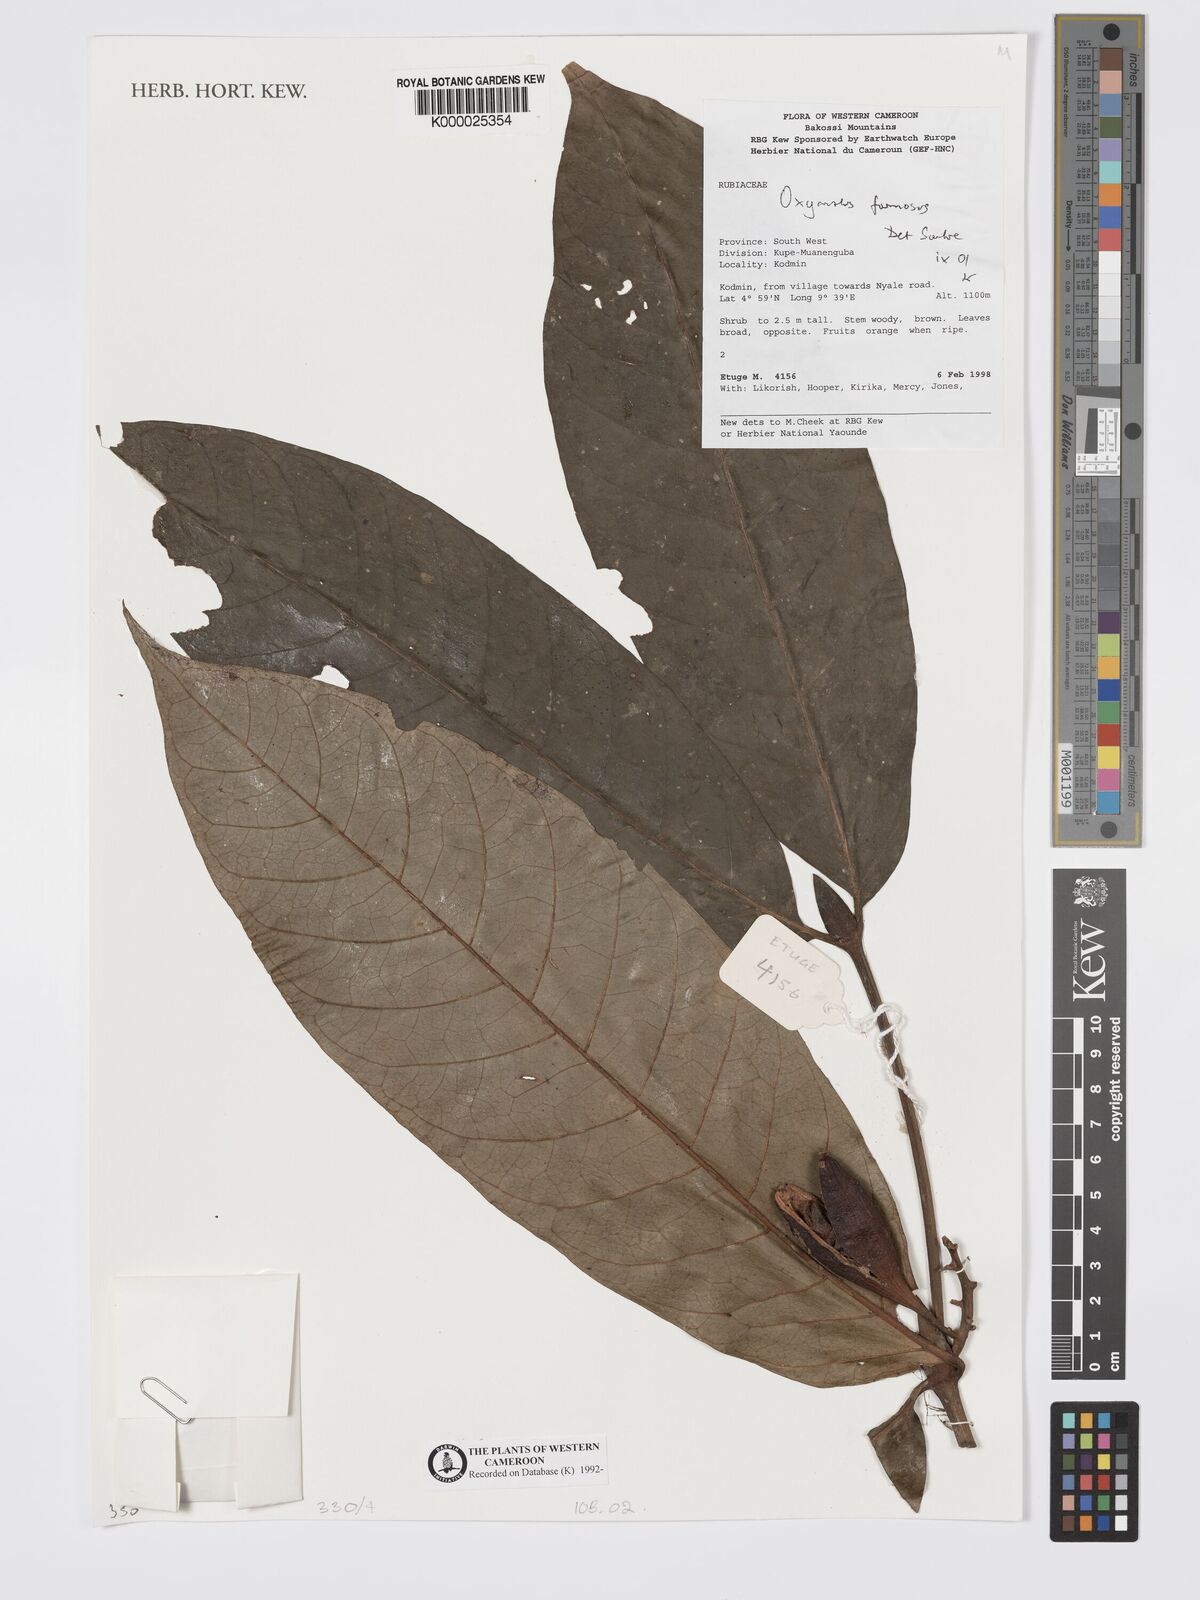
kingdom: Plantae
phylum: Tracheophyta
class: Magnoliopsida
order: Gentianales
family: Rubiaceae
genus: Oxyanthus
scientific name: Oxyanthus
